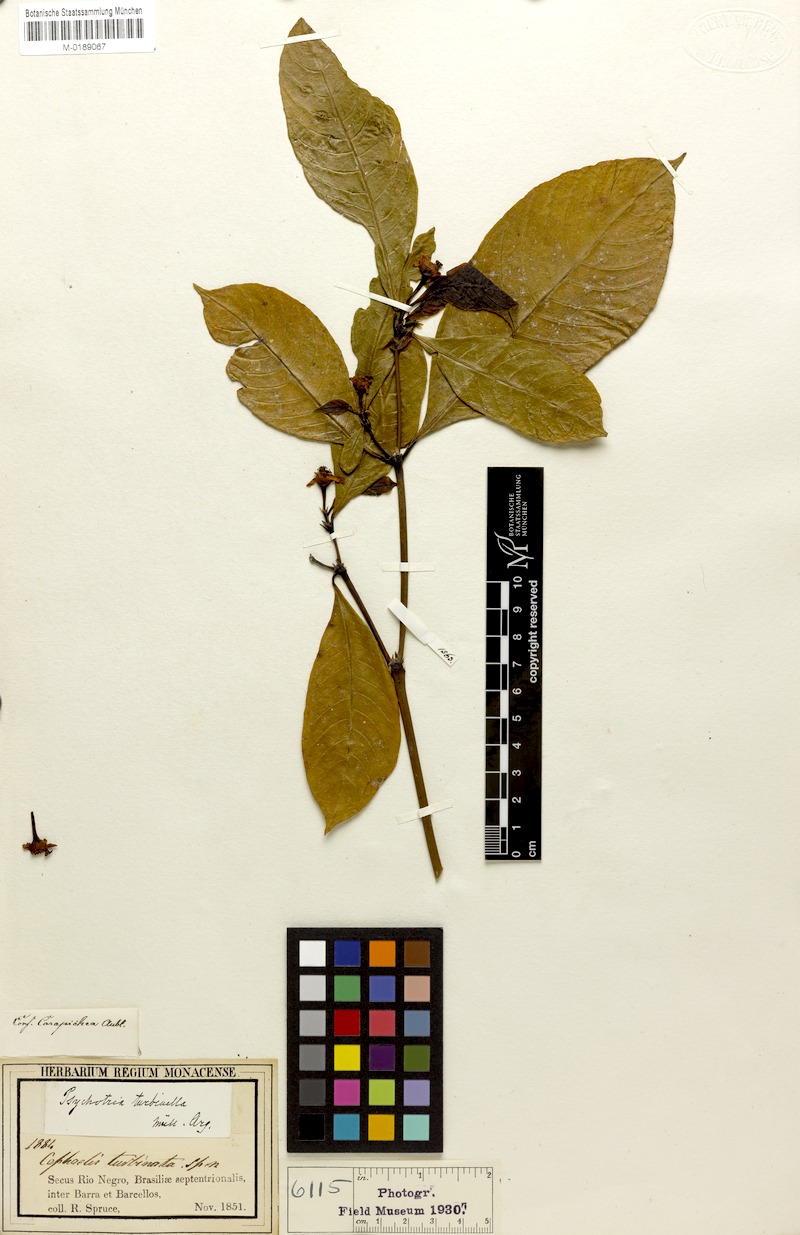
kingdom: Plantae
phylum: Tracheophyta
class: Magnoliopsida
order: Gentianales
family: Rubiaceae
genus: Palicourea
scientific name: Palicourea turbinella
